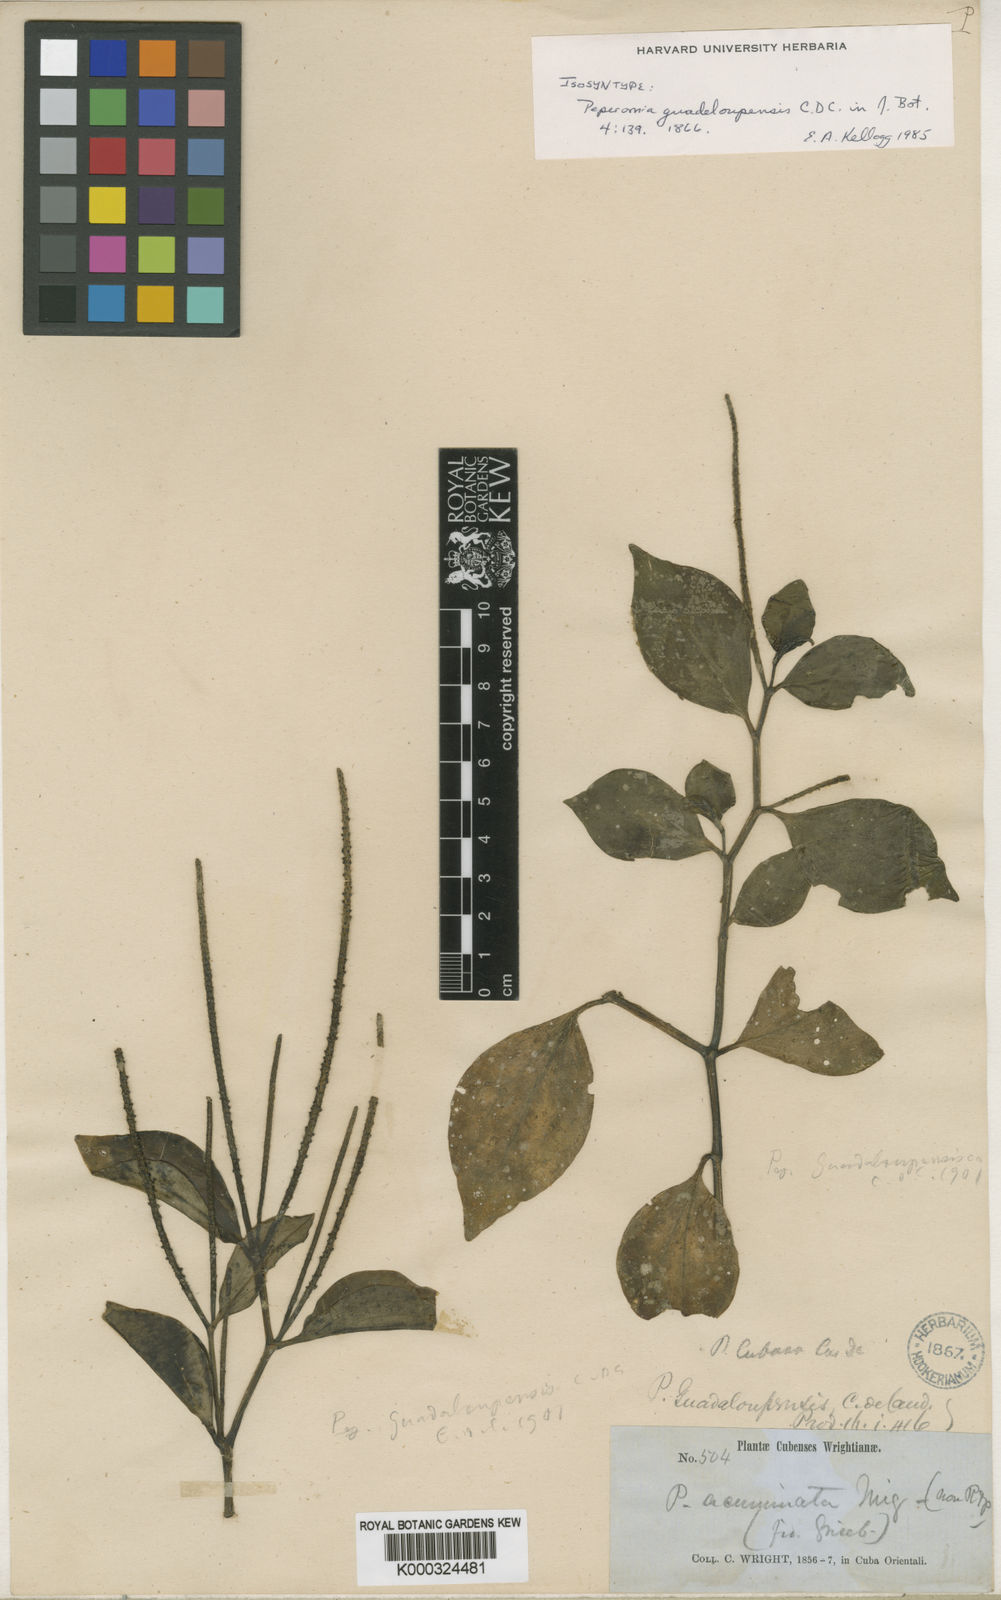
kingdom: Plantae
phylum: Tracheophyta
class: Magnoliopsida
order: Piperales
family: Piperaceae
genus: Peperomia
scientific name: Peperomia guadaloupensis
